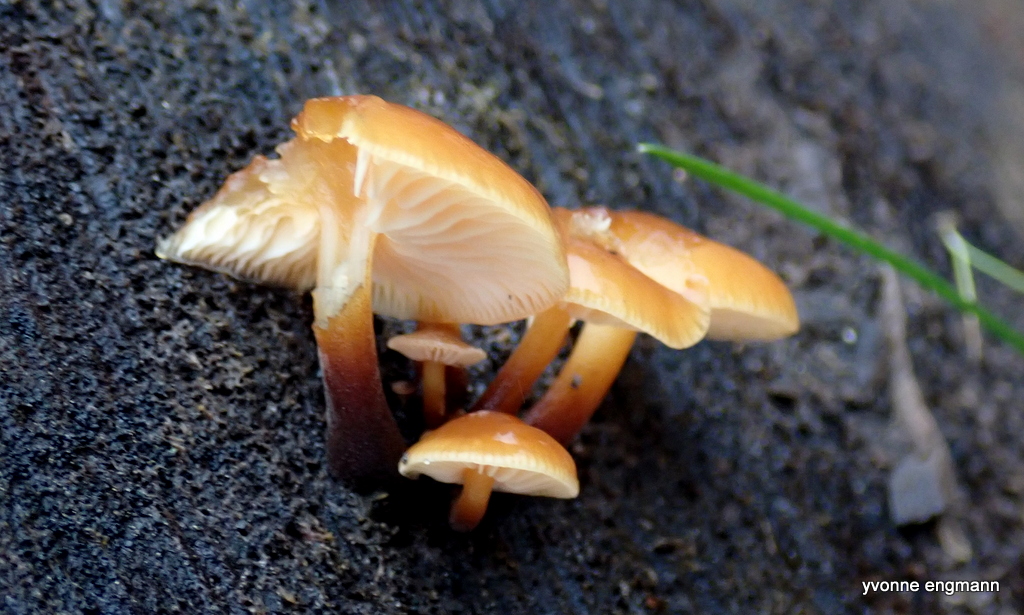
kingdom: Fungi
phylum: Basidiomycota
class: Agaricomycetes
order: Agaricales
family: Physalacriaceae
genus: Flammulina
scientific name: Flammulina
